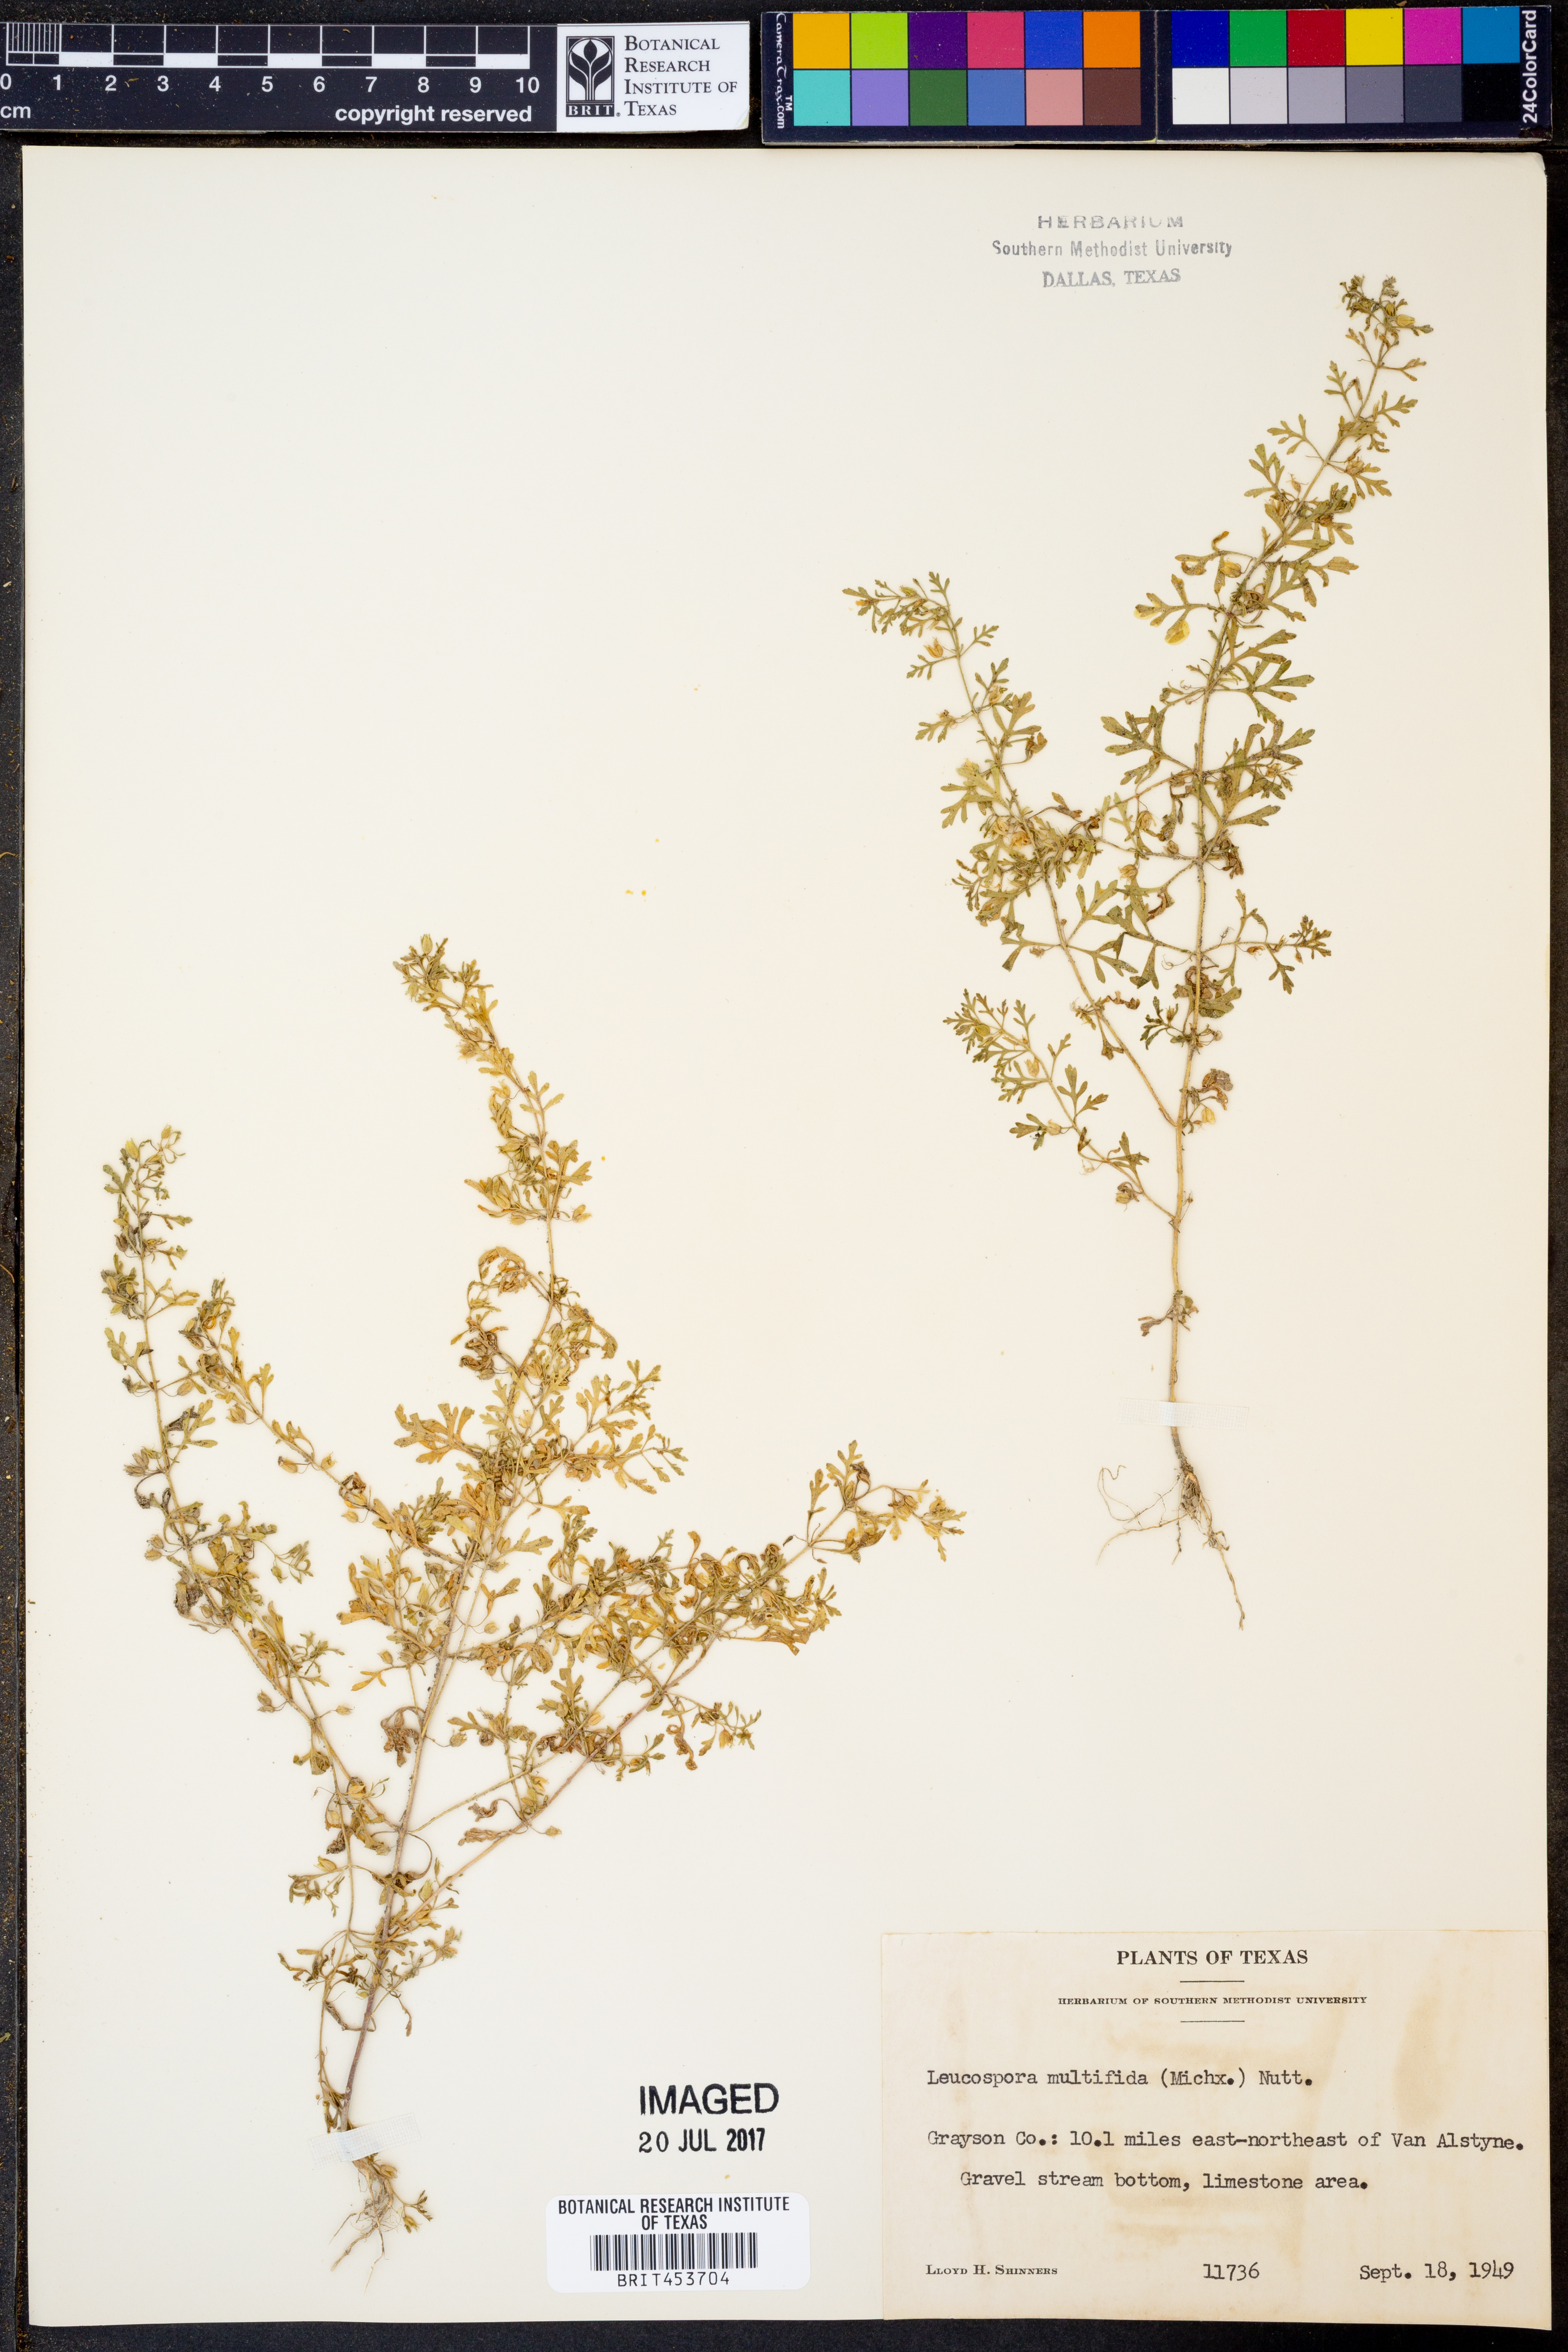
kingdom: Plantae
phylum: Tracheophyta
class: Magnoliopsida
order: Lamiales
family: Plantaginaceae
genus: Leucospora
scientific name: Leucospora multifida
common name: Narrow-leaf paleseed
